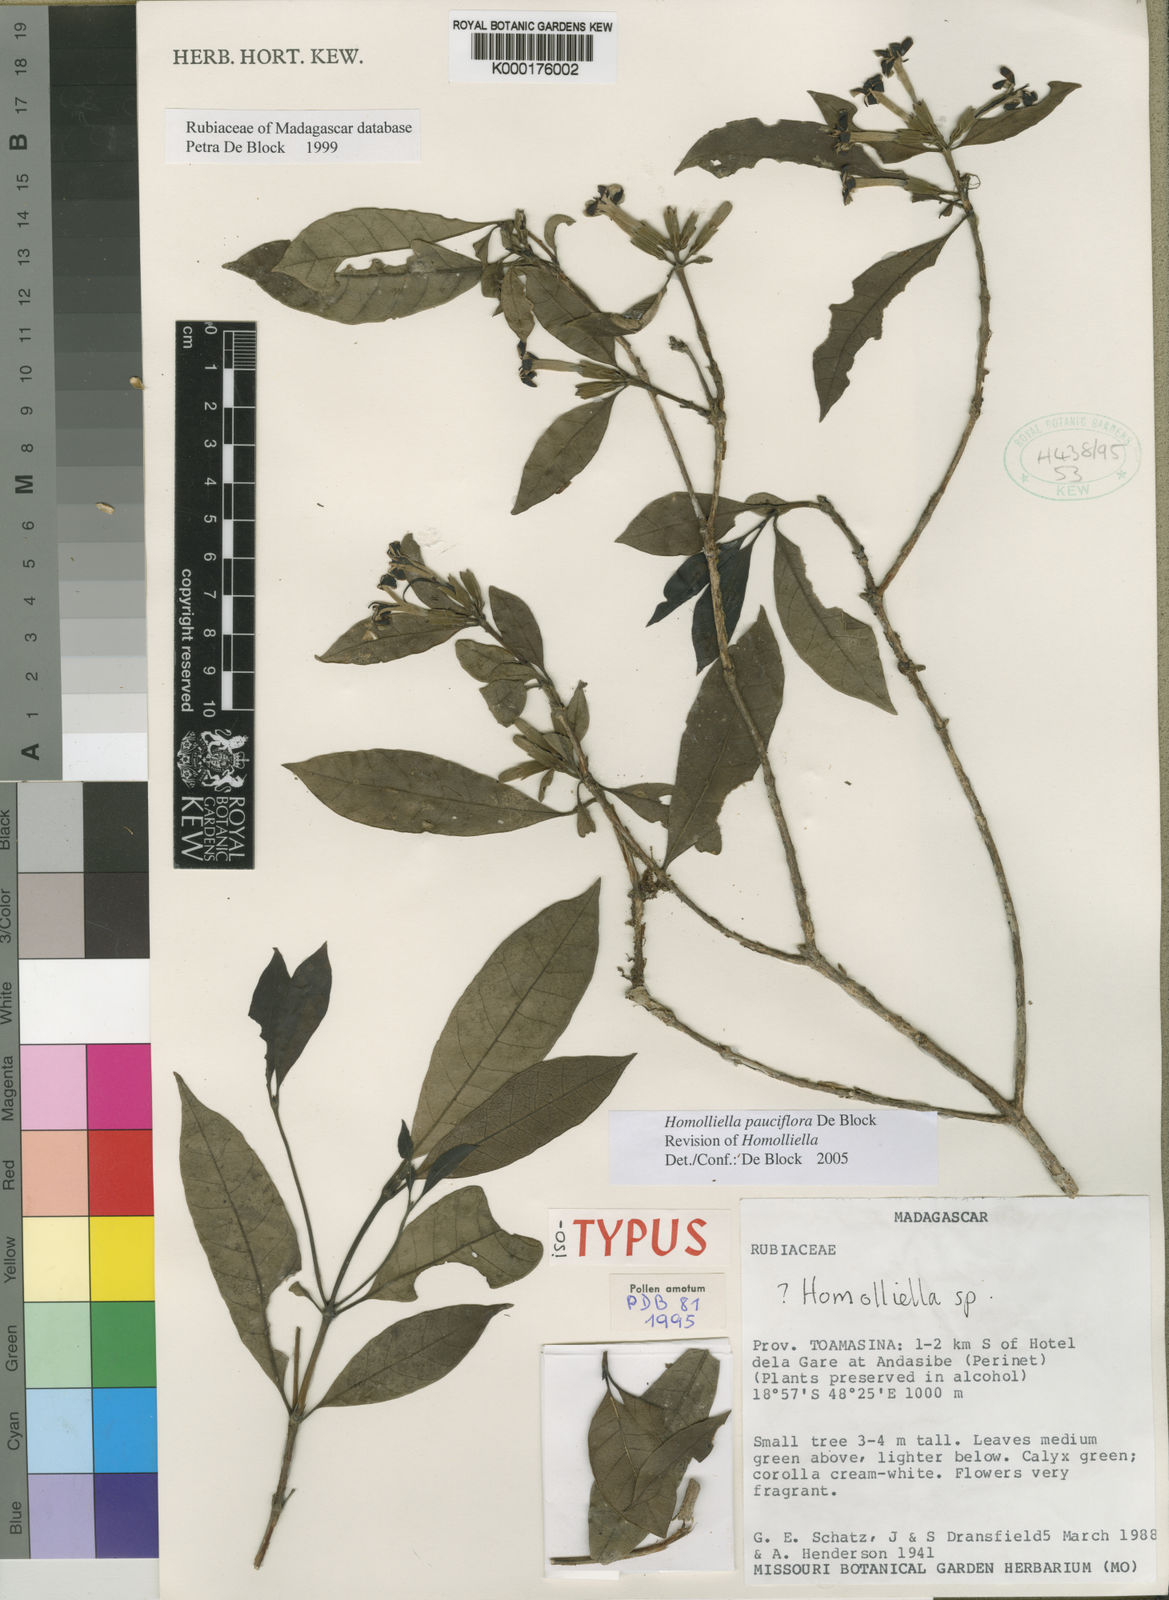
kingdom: Plantae
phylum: Tracheophyta
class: Magnoliopsida
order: Gentianales
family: Rubiaceae
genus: Paracephaelis
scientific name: Paracephaelis
